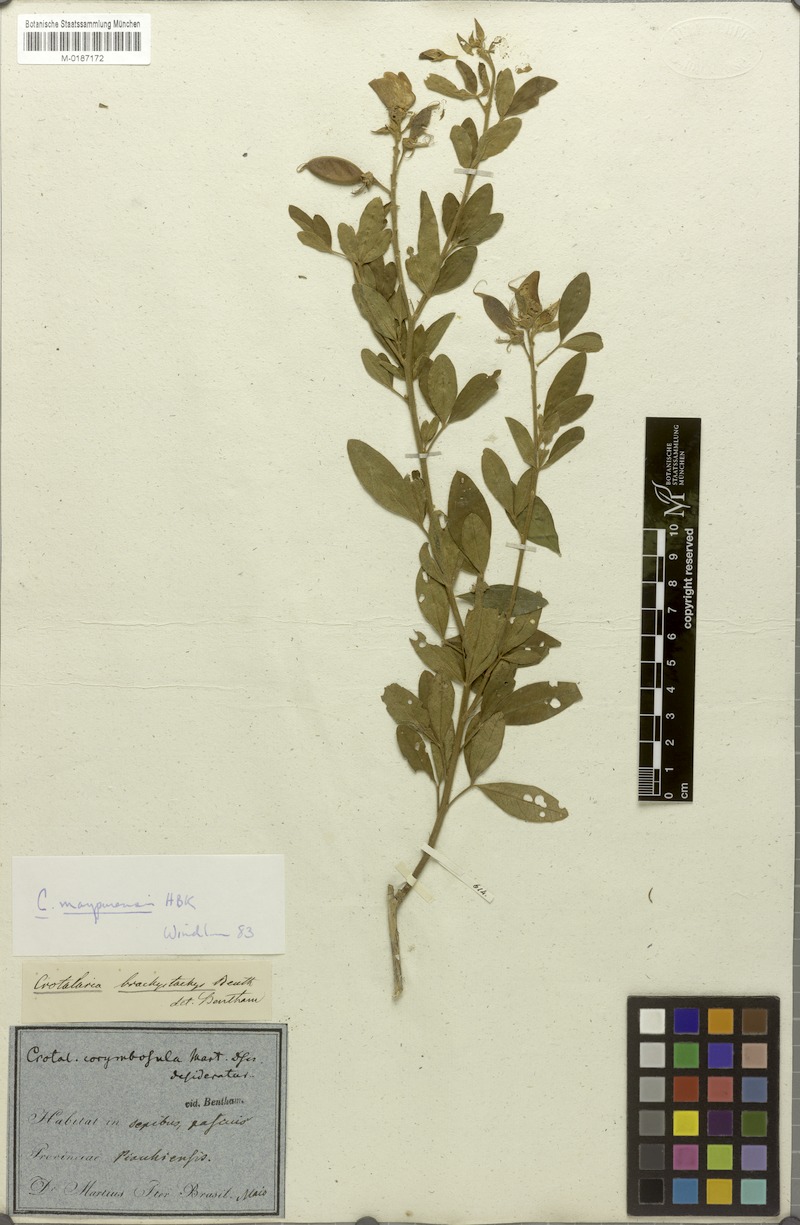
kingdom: Plantae
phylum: Tracheophyta
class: Magnoliopsida
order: Fabales
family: Fabaceae
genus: Crotalaria
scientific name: Crotalaria maypurensis
